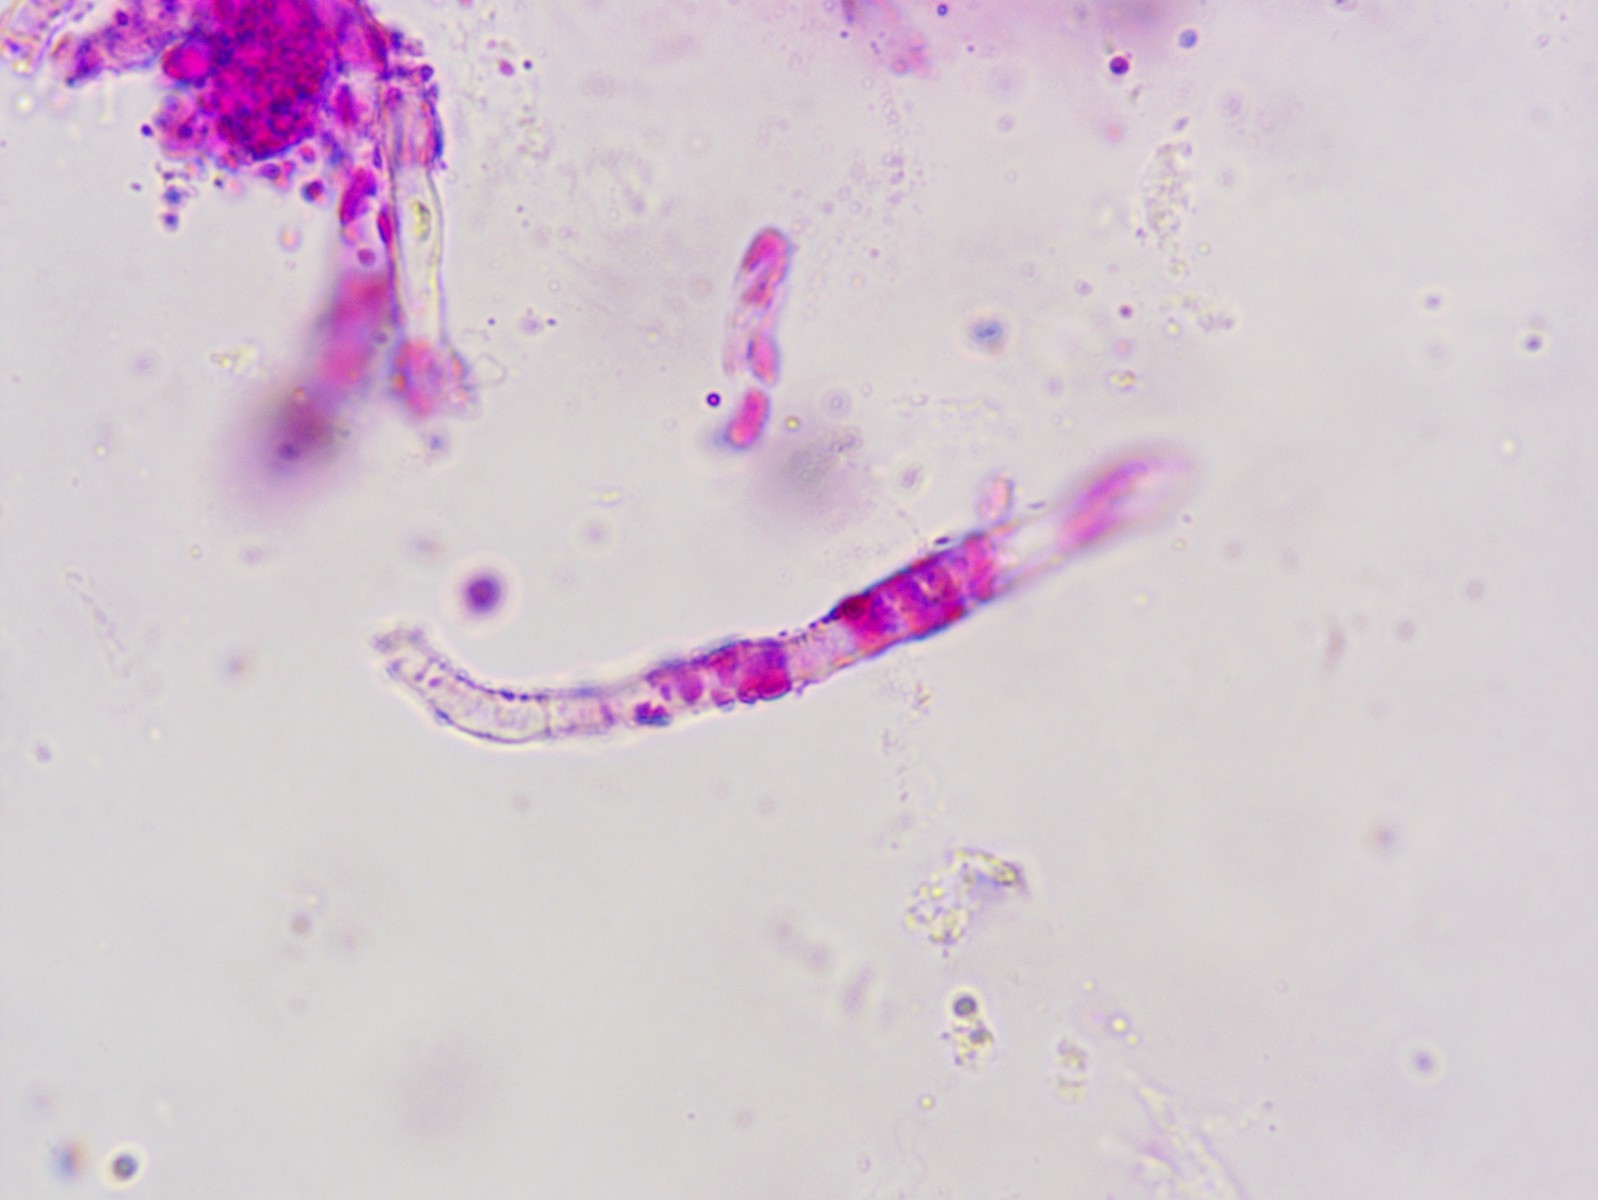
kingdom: Fungi
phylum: Basidiomycota
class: Agaricomycetes
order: Russulales
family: Russulaceae
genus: Russula
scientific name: Russula risigallina
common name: Golden brittlegill
